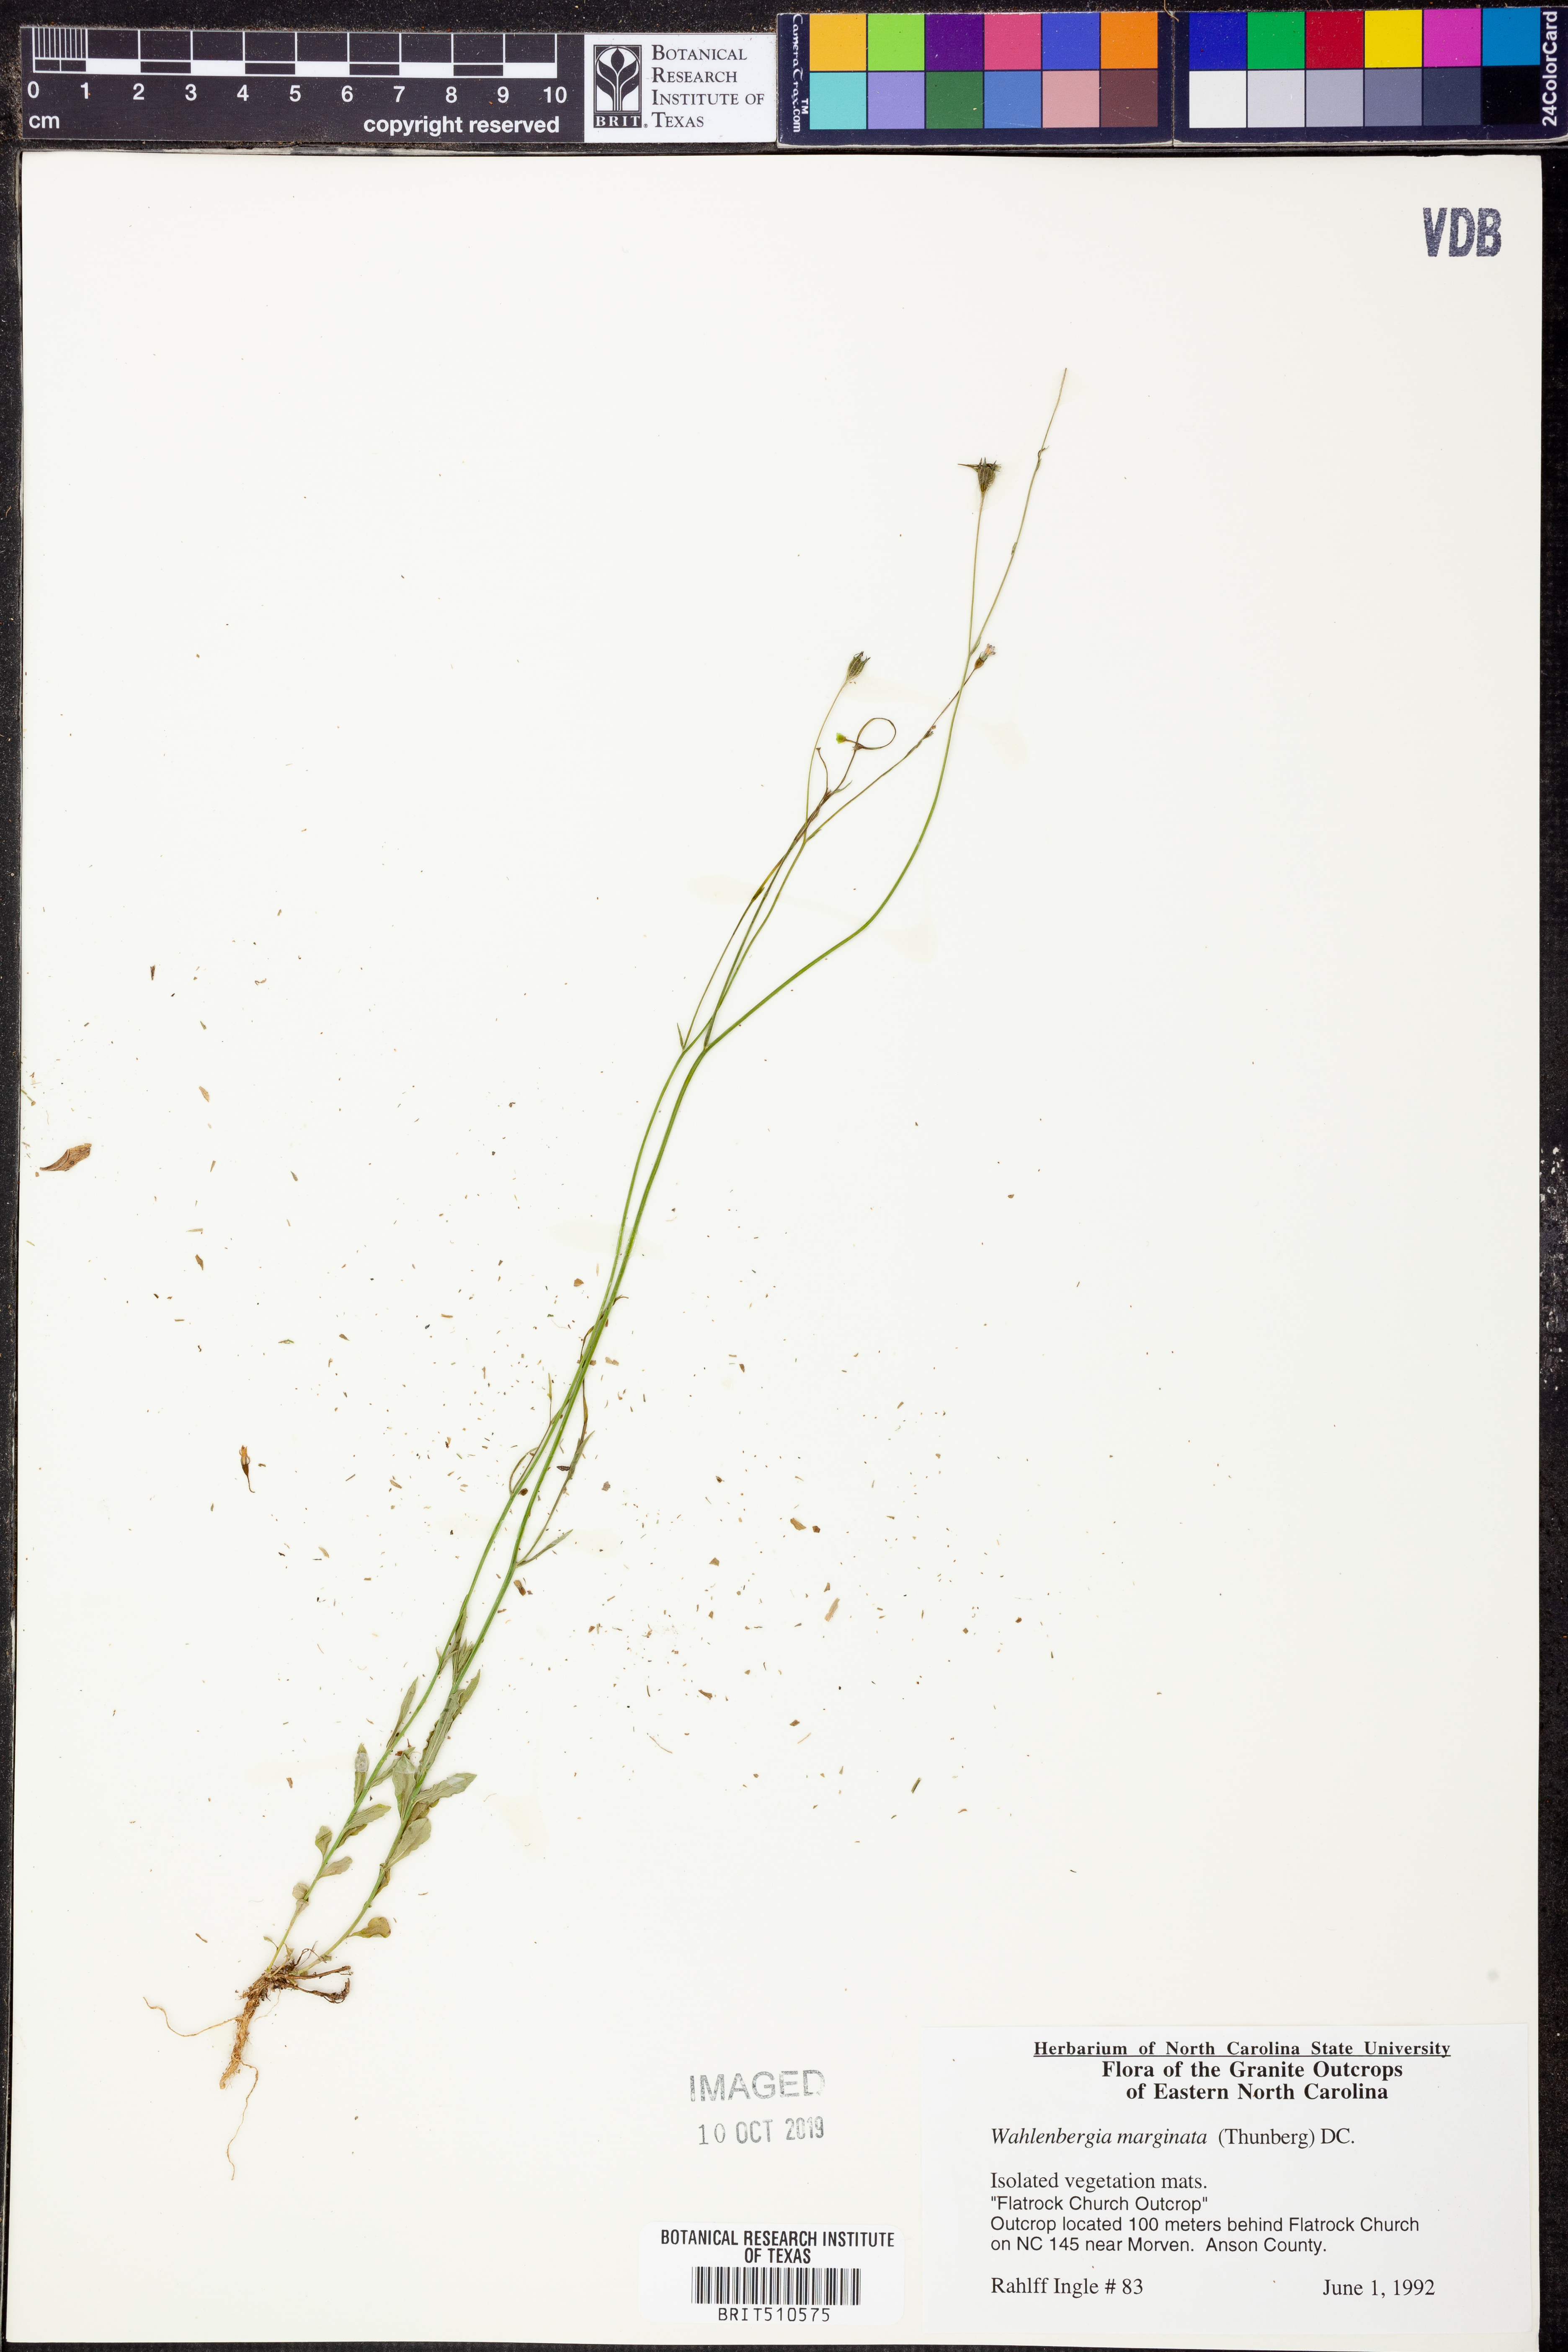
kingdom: Plantae
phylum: Tracheophyta
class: Magnoliopsida
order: Asterales
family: Campanulaceae
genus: Wahlenbergia
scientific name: Wahlenbergia marginata
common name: Southern rockbell
